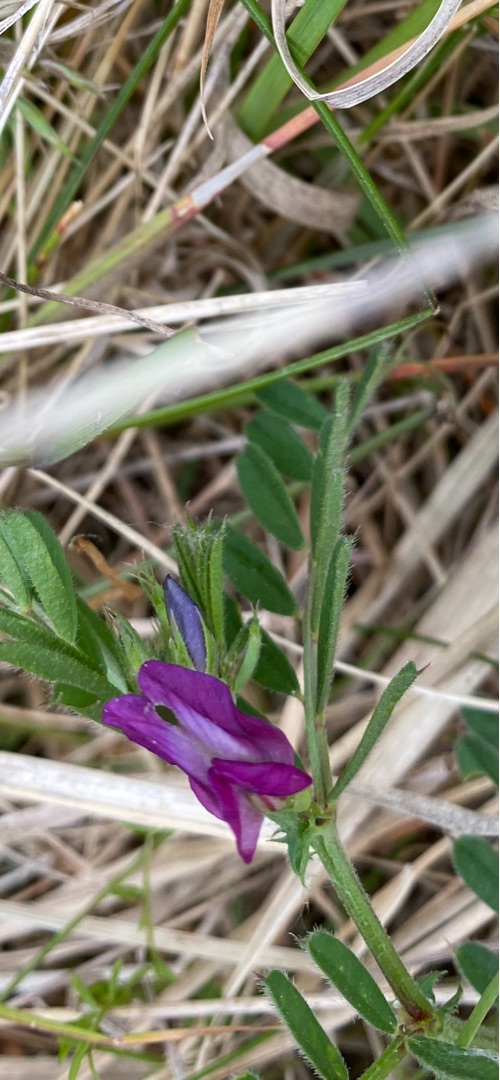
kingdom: Plantae
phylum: Tracheophyta
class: Magnoliopsida
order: Fabales
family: Fabaceae
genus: Vicia
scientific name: Vicia sativa
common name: Smalbladet vikke
